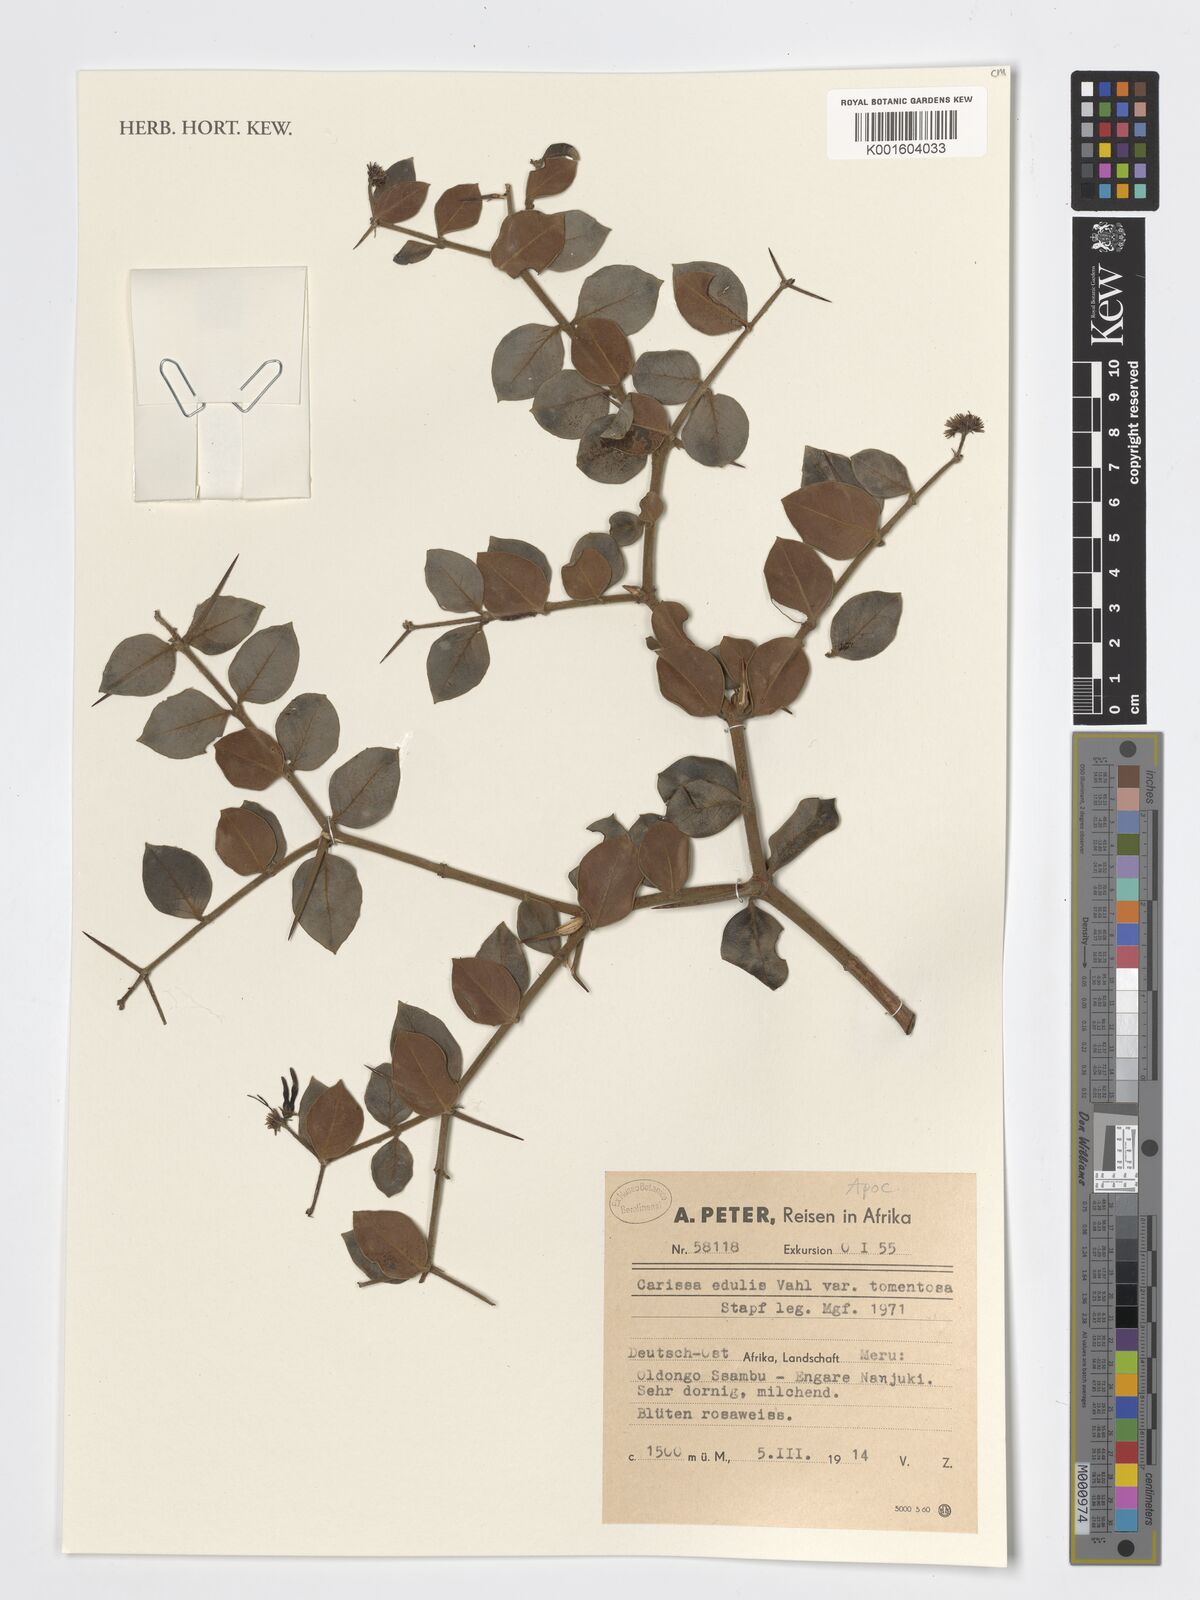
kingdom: Plantae
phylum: Tracheophyta
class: Magnoliopsida
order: Gentianales
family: Apocynaceae
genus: Carissa
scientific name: Carissa spinarum
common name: Egyptian carissa
